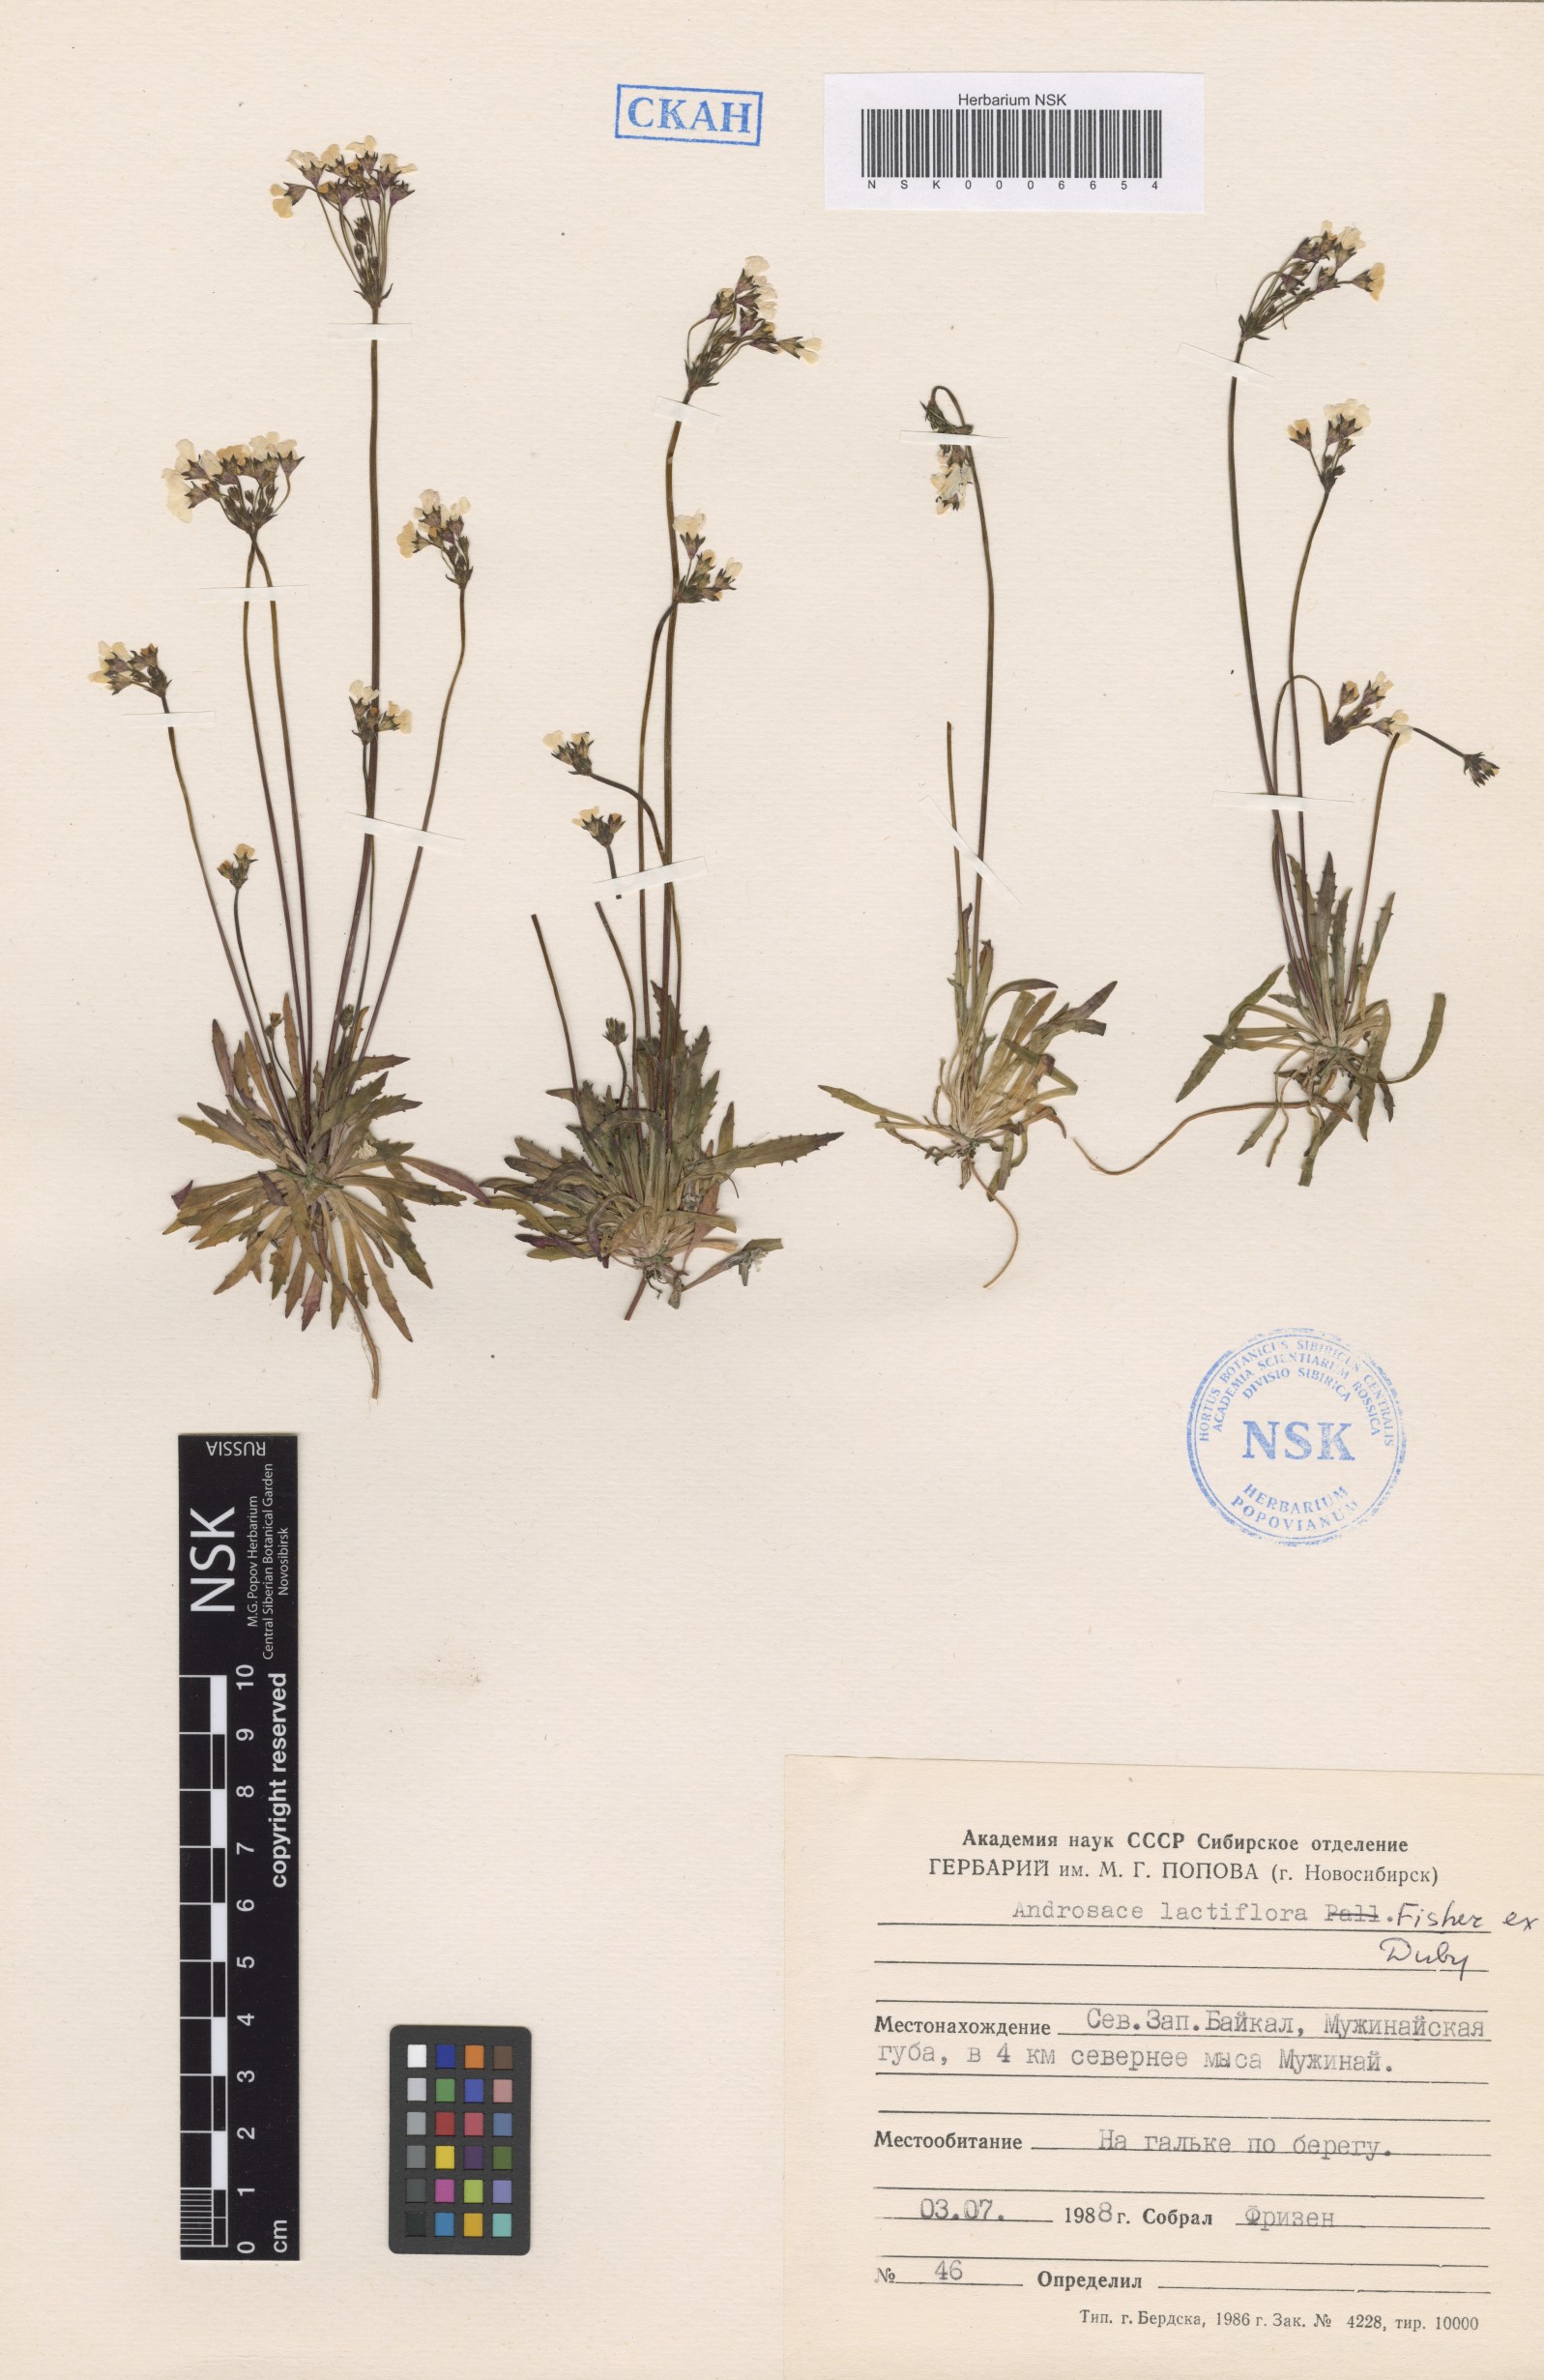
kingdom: Plantae
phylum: Tracheophyta
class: Magnoliopsida
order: Ericales
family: Primulaceae
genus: Androsace
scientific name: Androsace lactiflora
